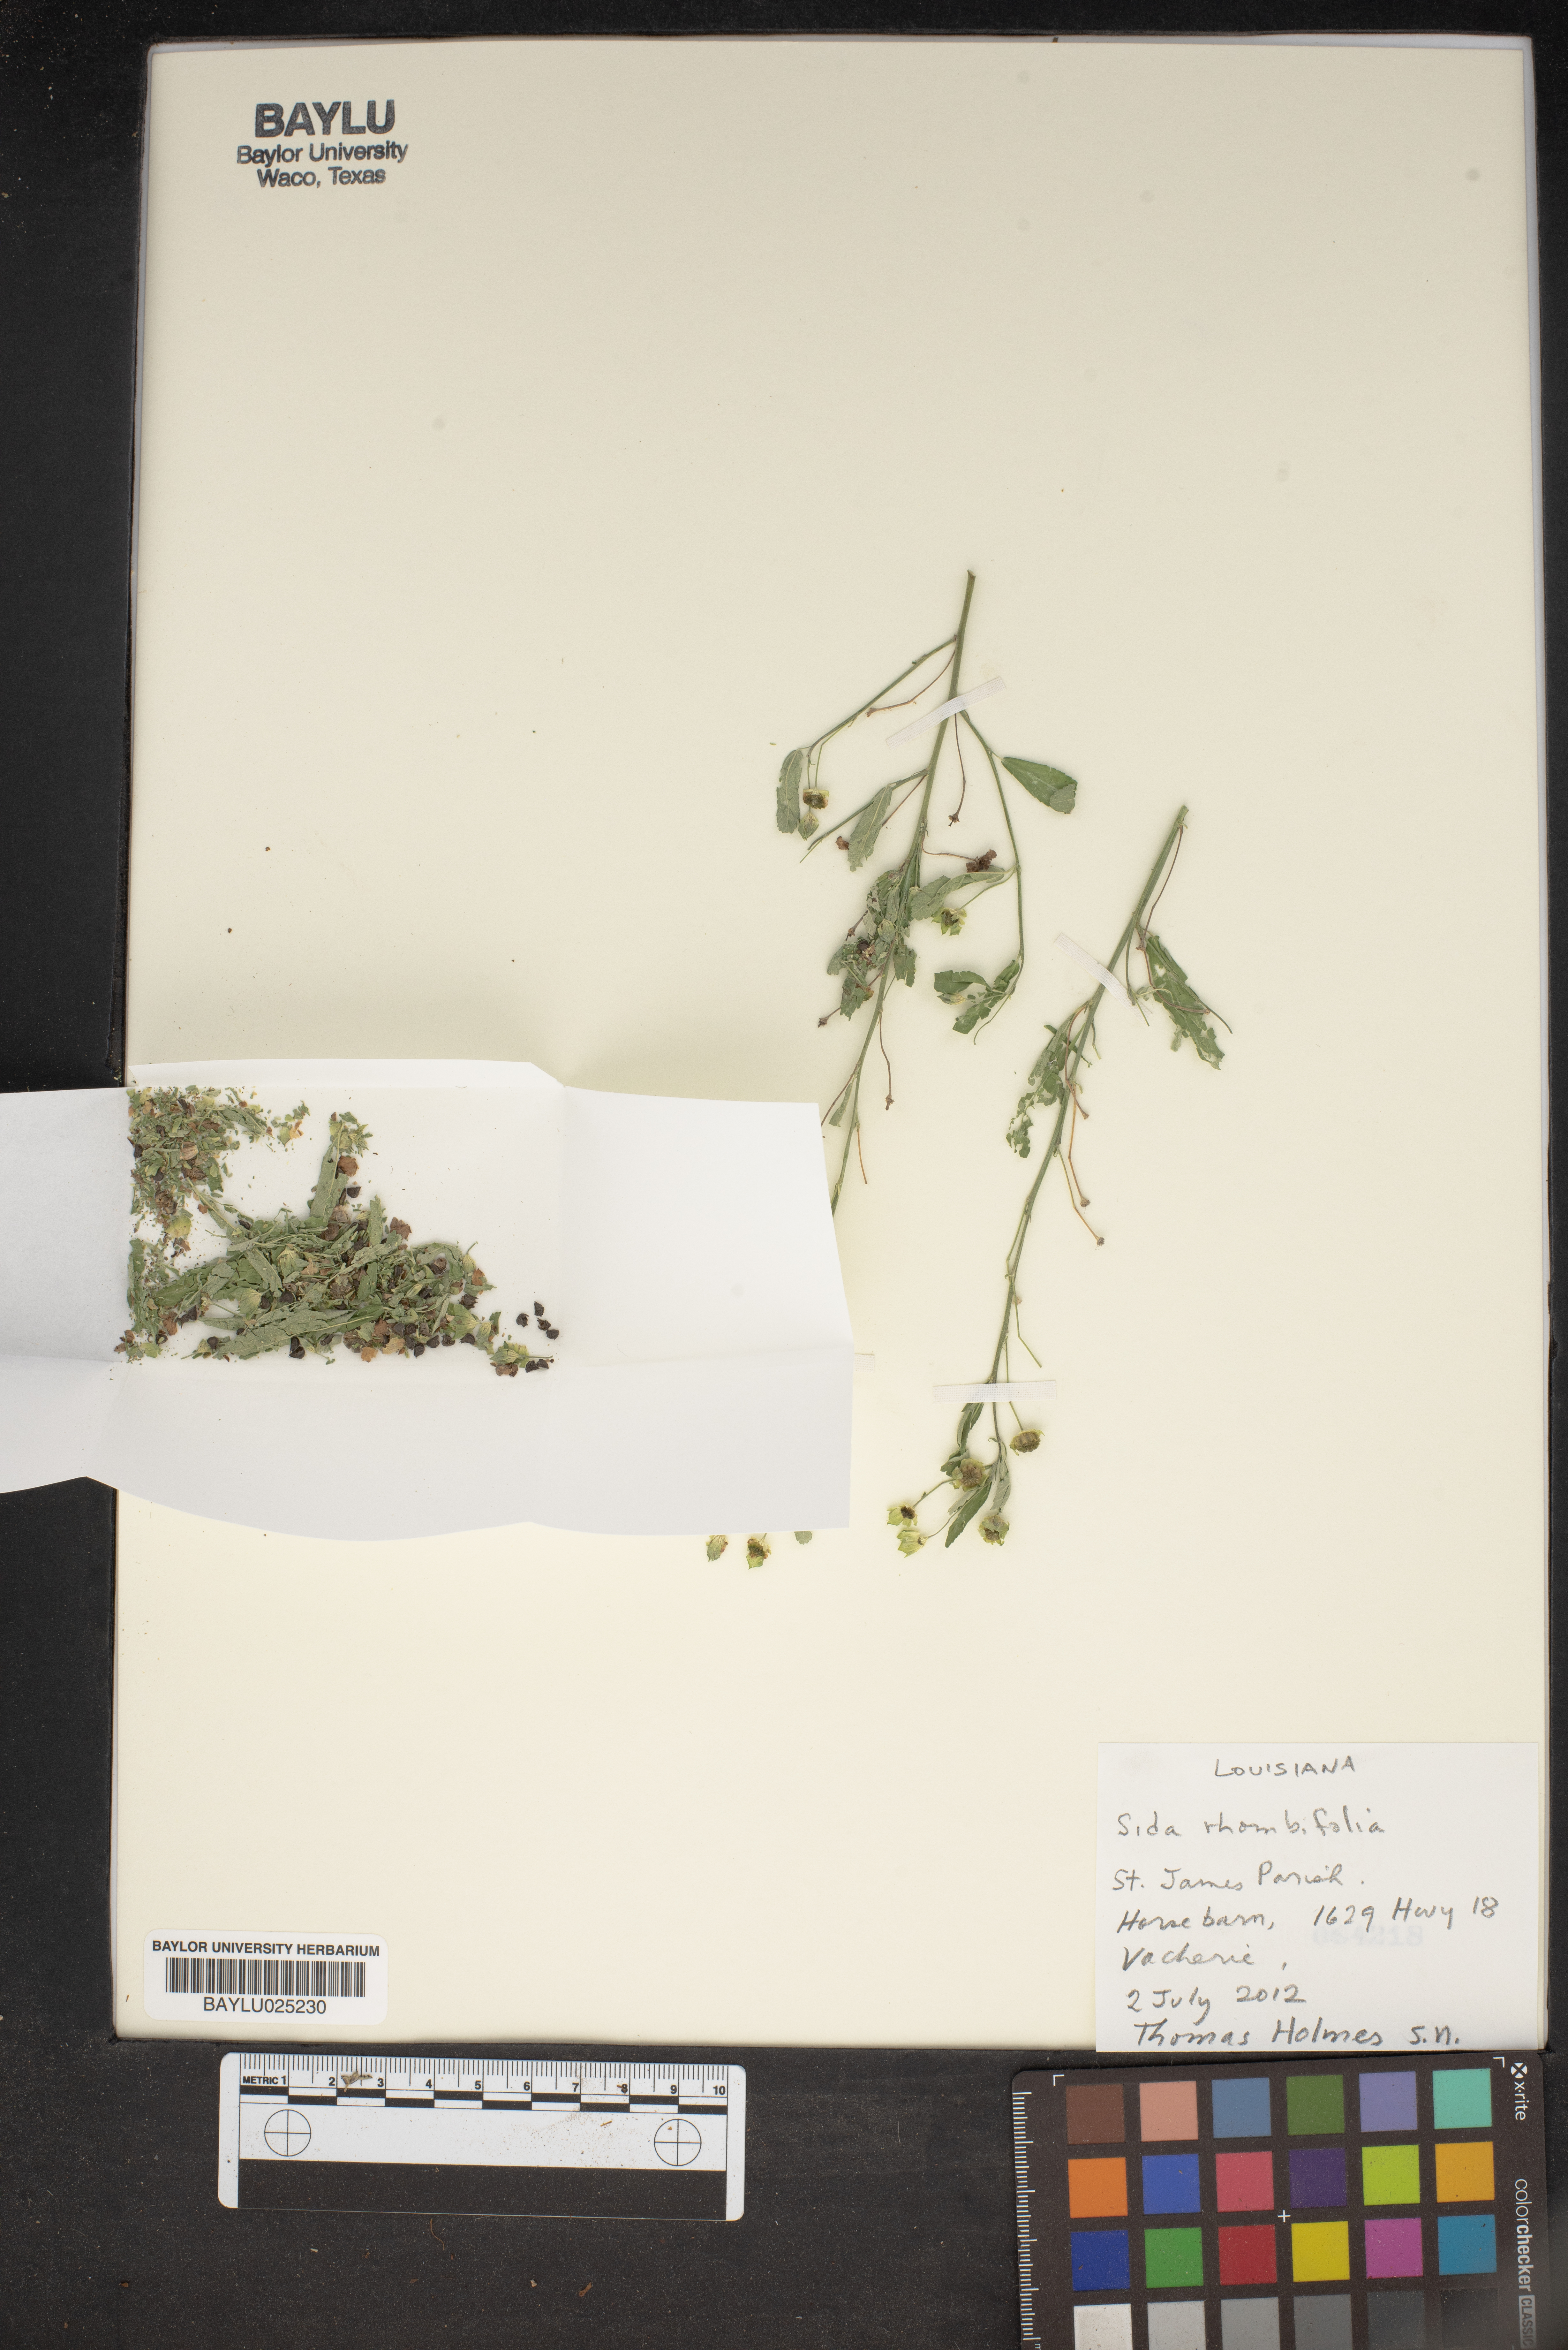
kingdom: Plantae
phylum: Tracheophyta
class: Magnoliopsida
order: Malvales
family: Malvaceae
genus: Sida
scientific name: Sida rhombifolia
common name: Queensland-hemp
